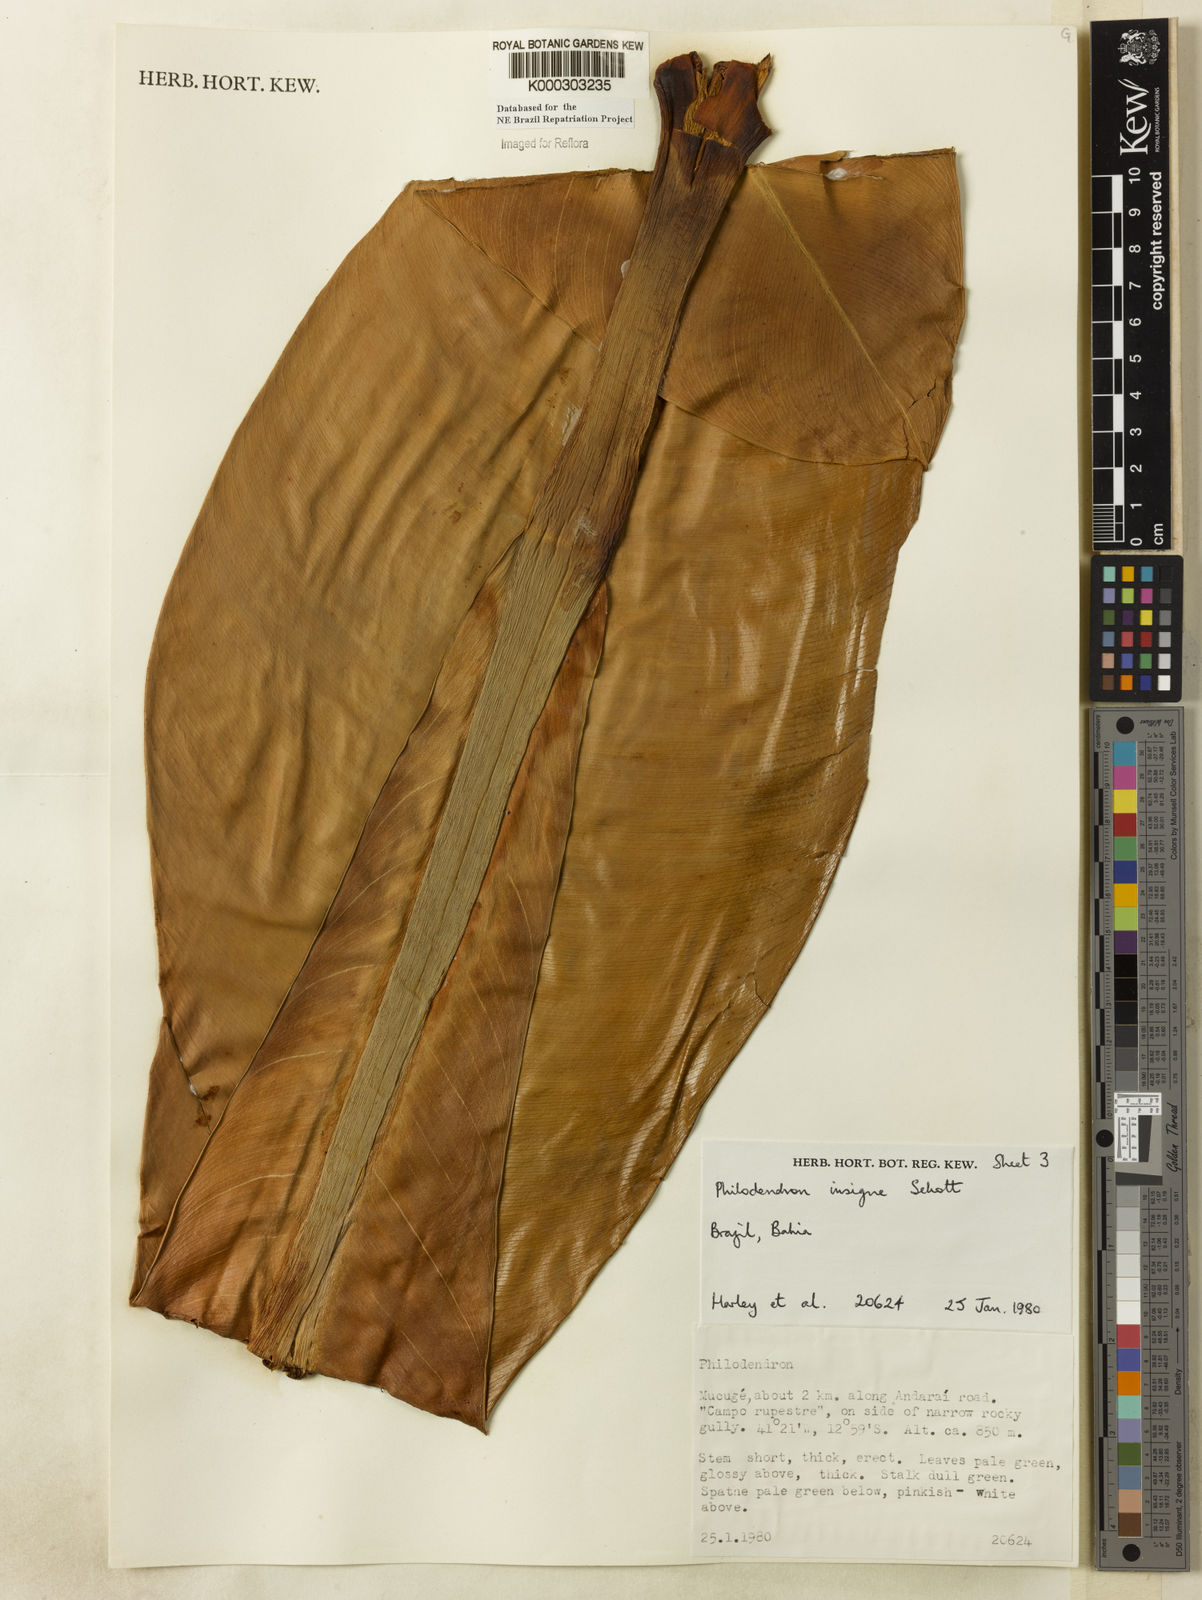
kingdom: Plantae
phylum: Tracheophyta
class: Liliopsida
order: Alismatales
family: Araceae
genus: Philodendron
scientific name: Philodendron insigne
